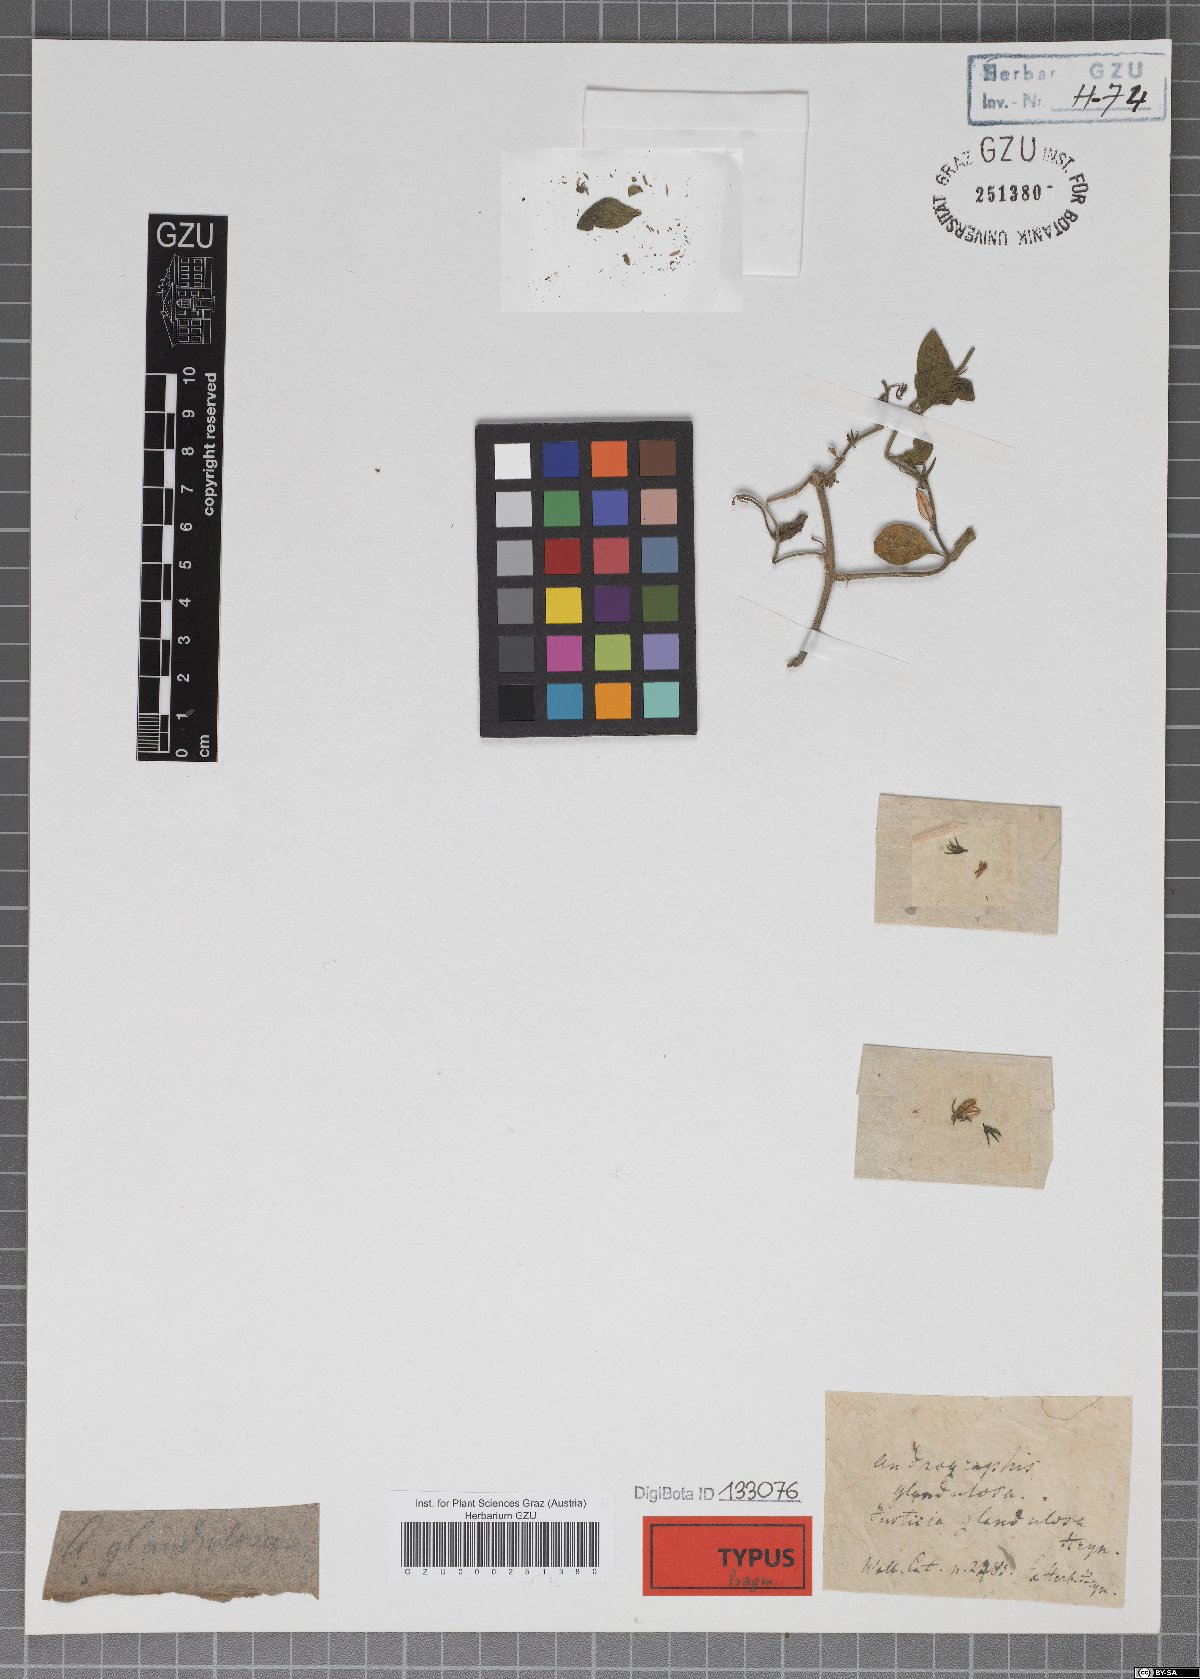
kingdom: Plantae
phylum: Tracheophyta
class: Magnoliopsida
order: Lamiales
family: Acanthaceae
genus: Andrographis
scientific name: Andrographis
